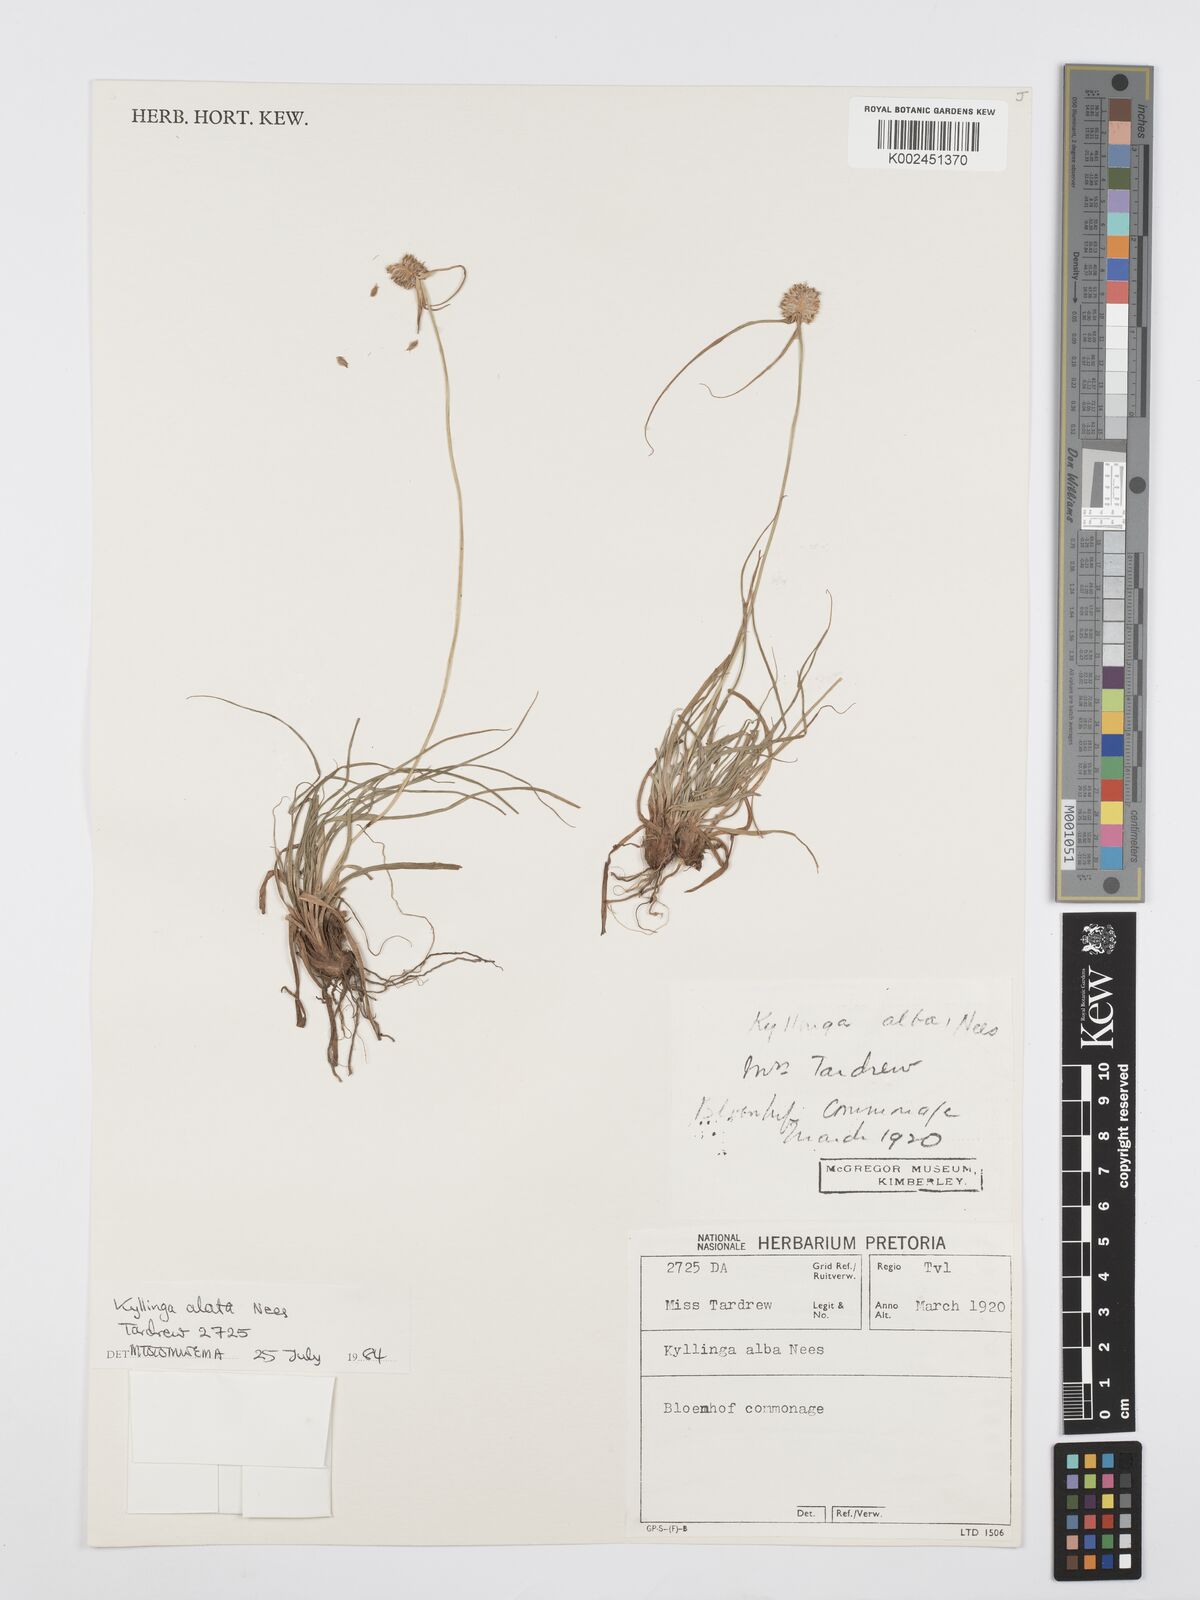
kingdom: Plantae
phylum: Tracheophyta
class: Liliopsida
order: Poales
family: Cyperaceae
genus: Cyperus
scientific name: Cyperus
